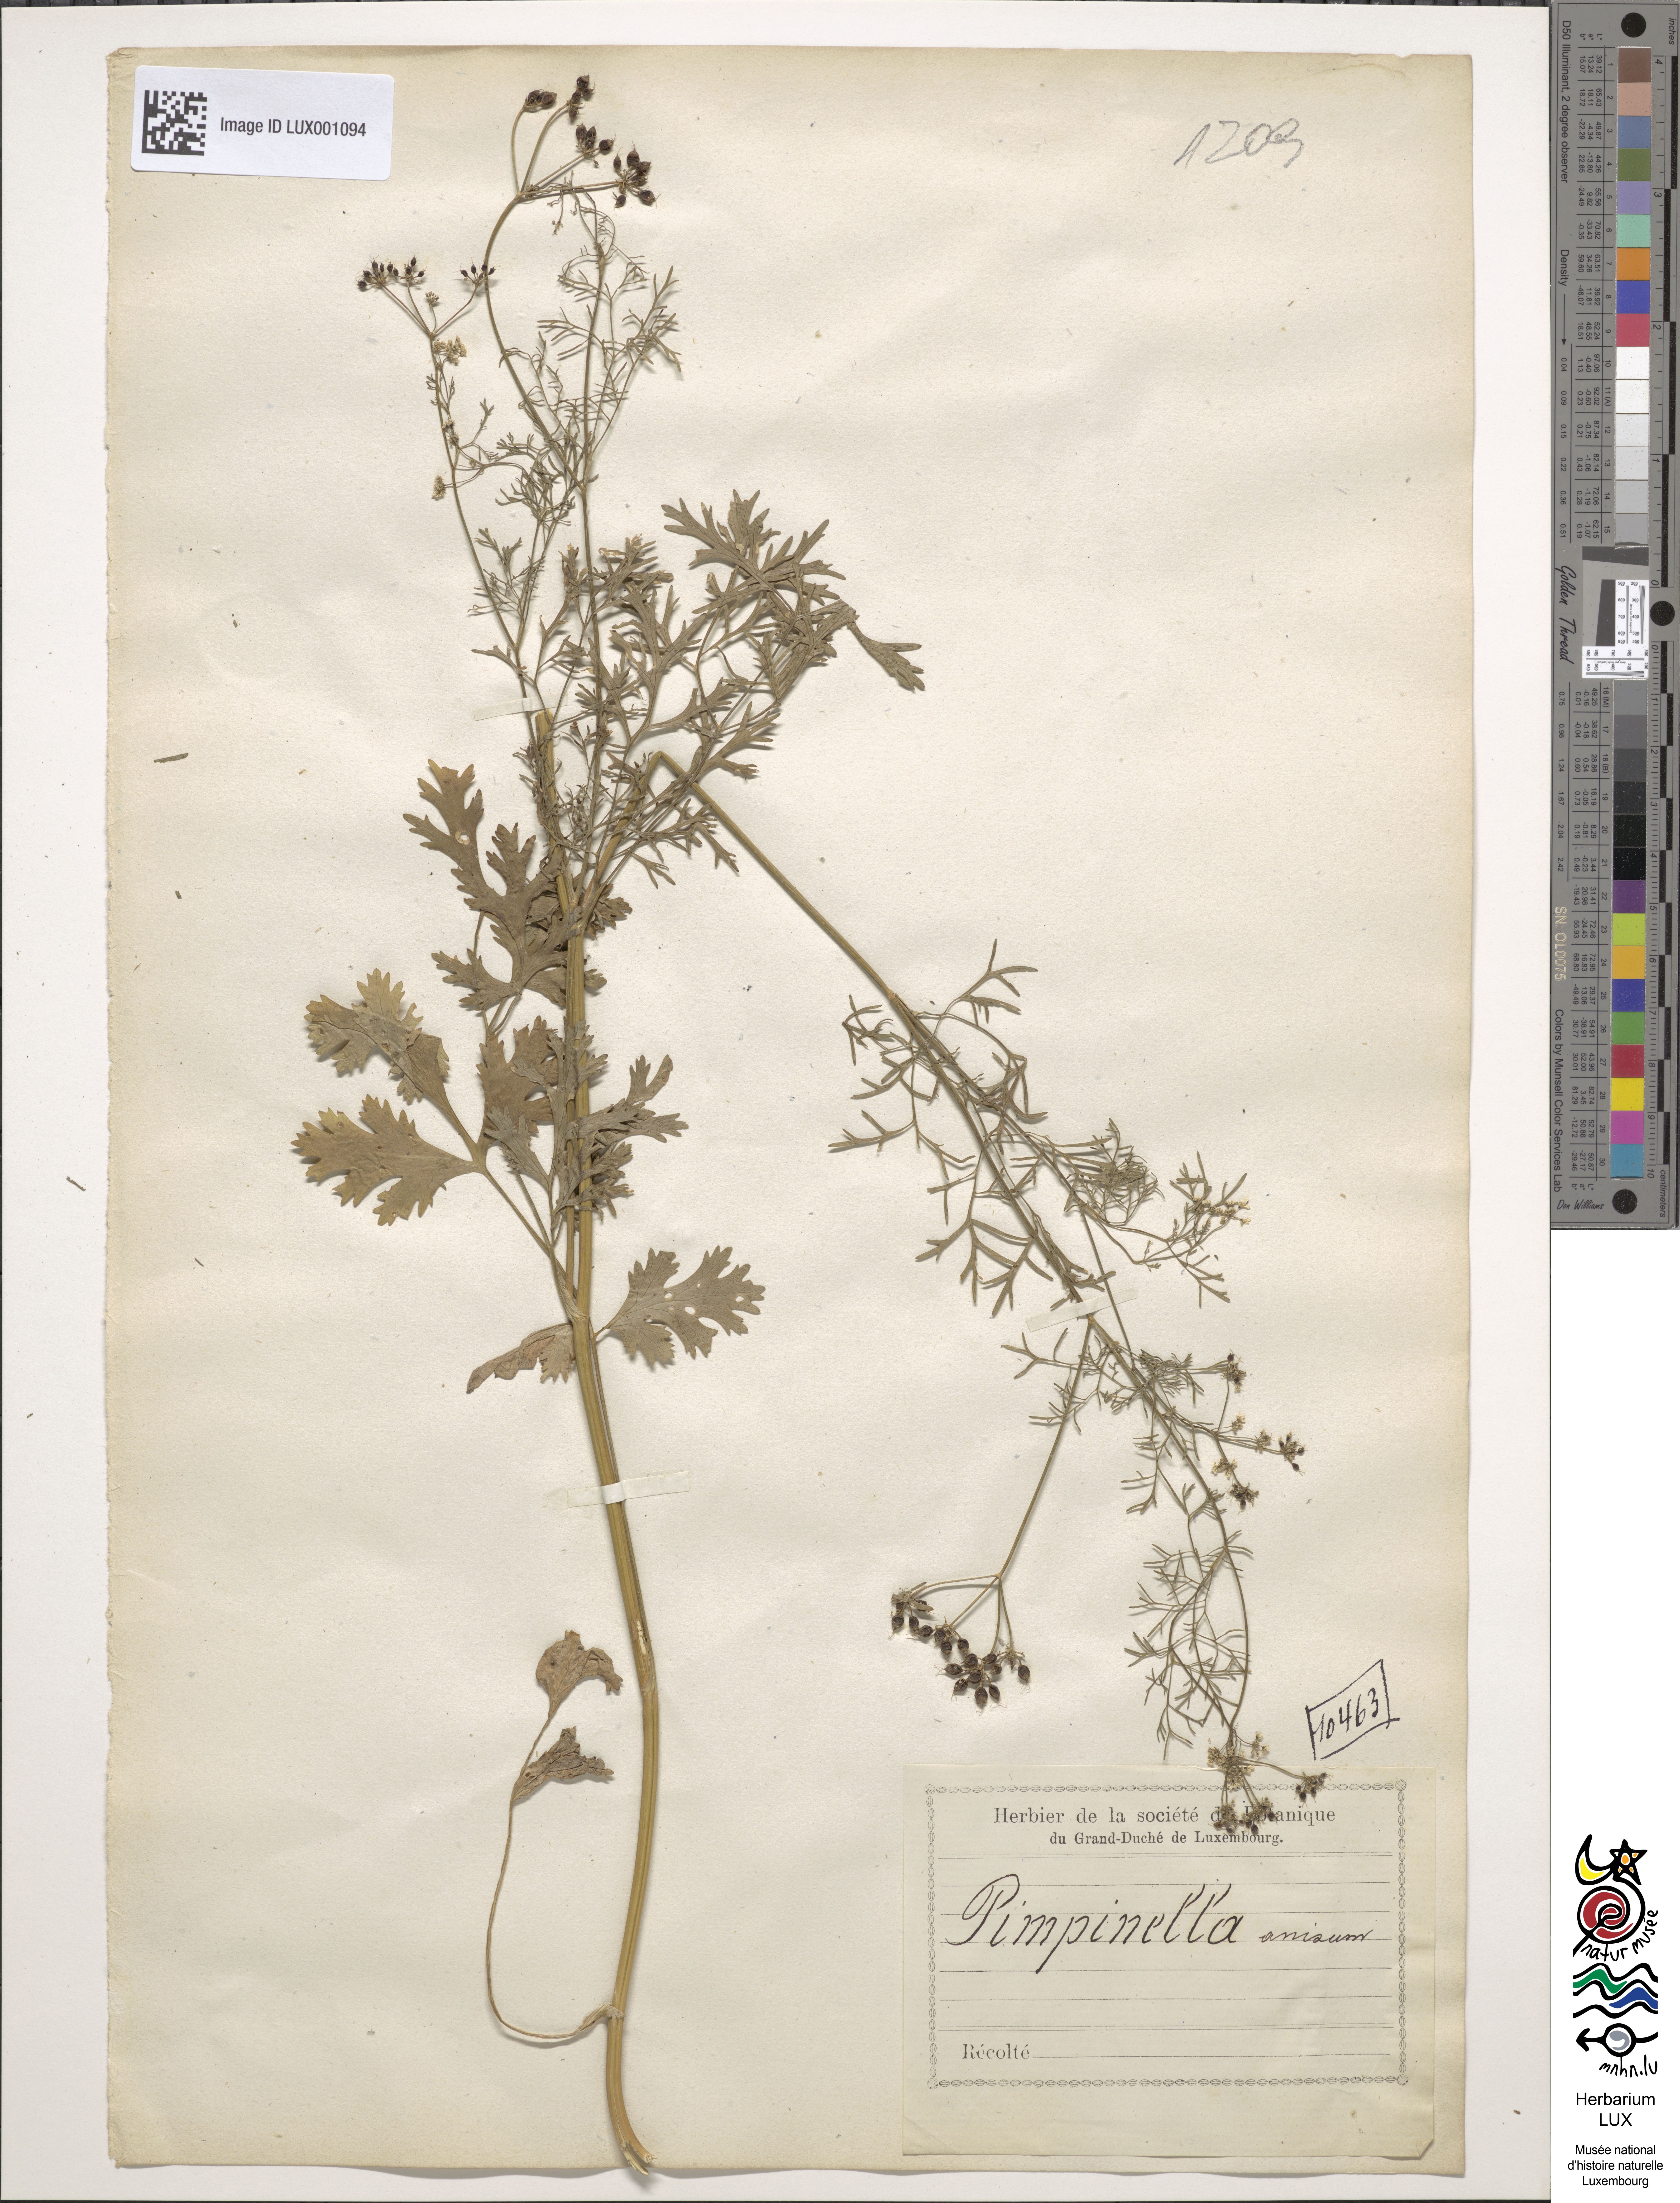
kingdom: Plantae
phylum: Tracheophyta
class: Magnoliopsida
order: Apiales
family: Apiaceae
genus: Pimpinella
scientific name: Pimpinella anisum
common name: Anise burnet saxifrage
